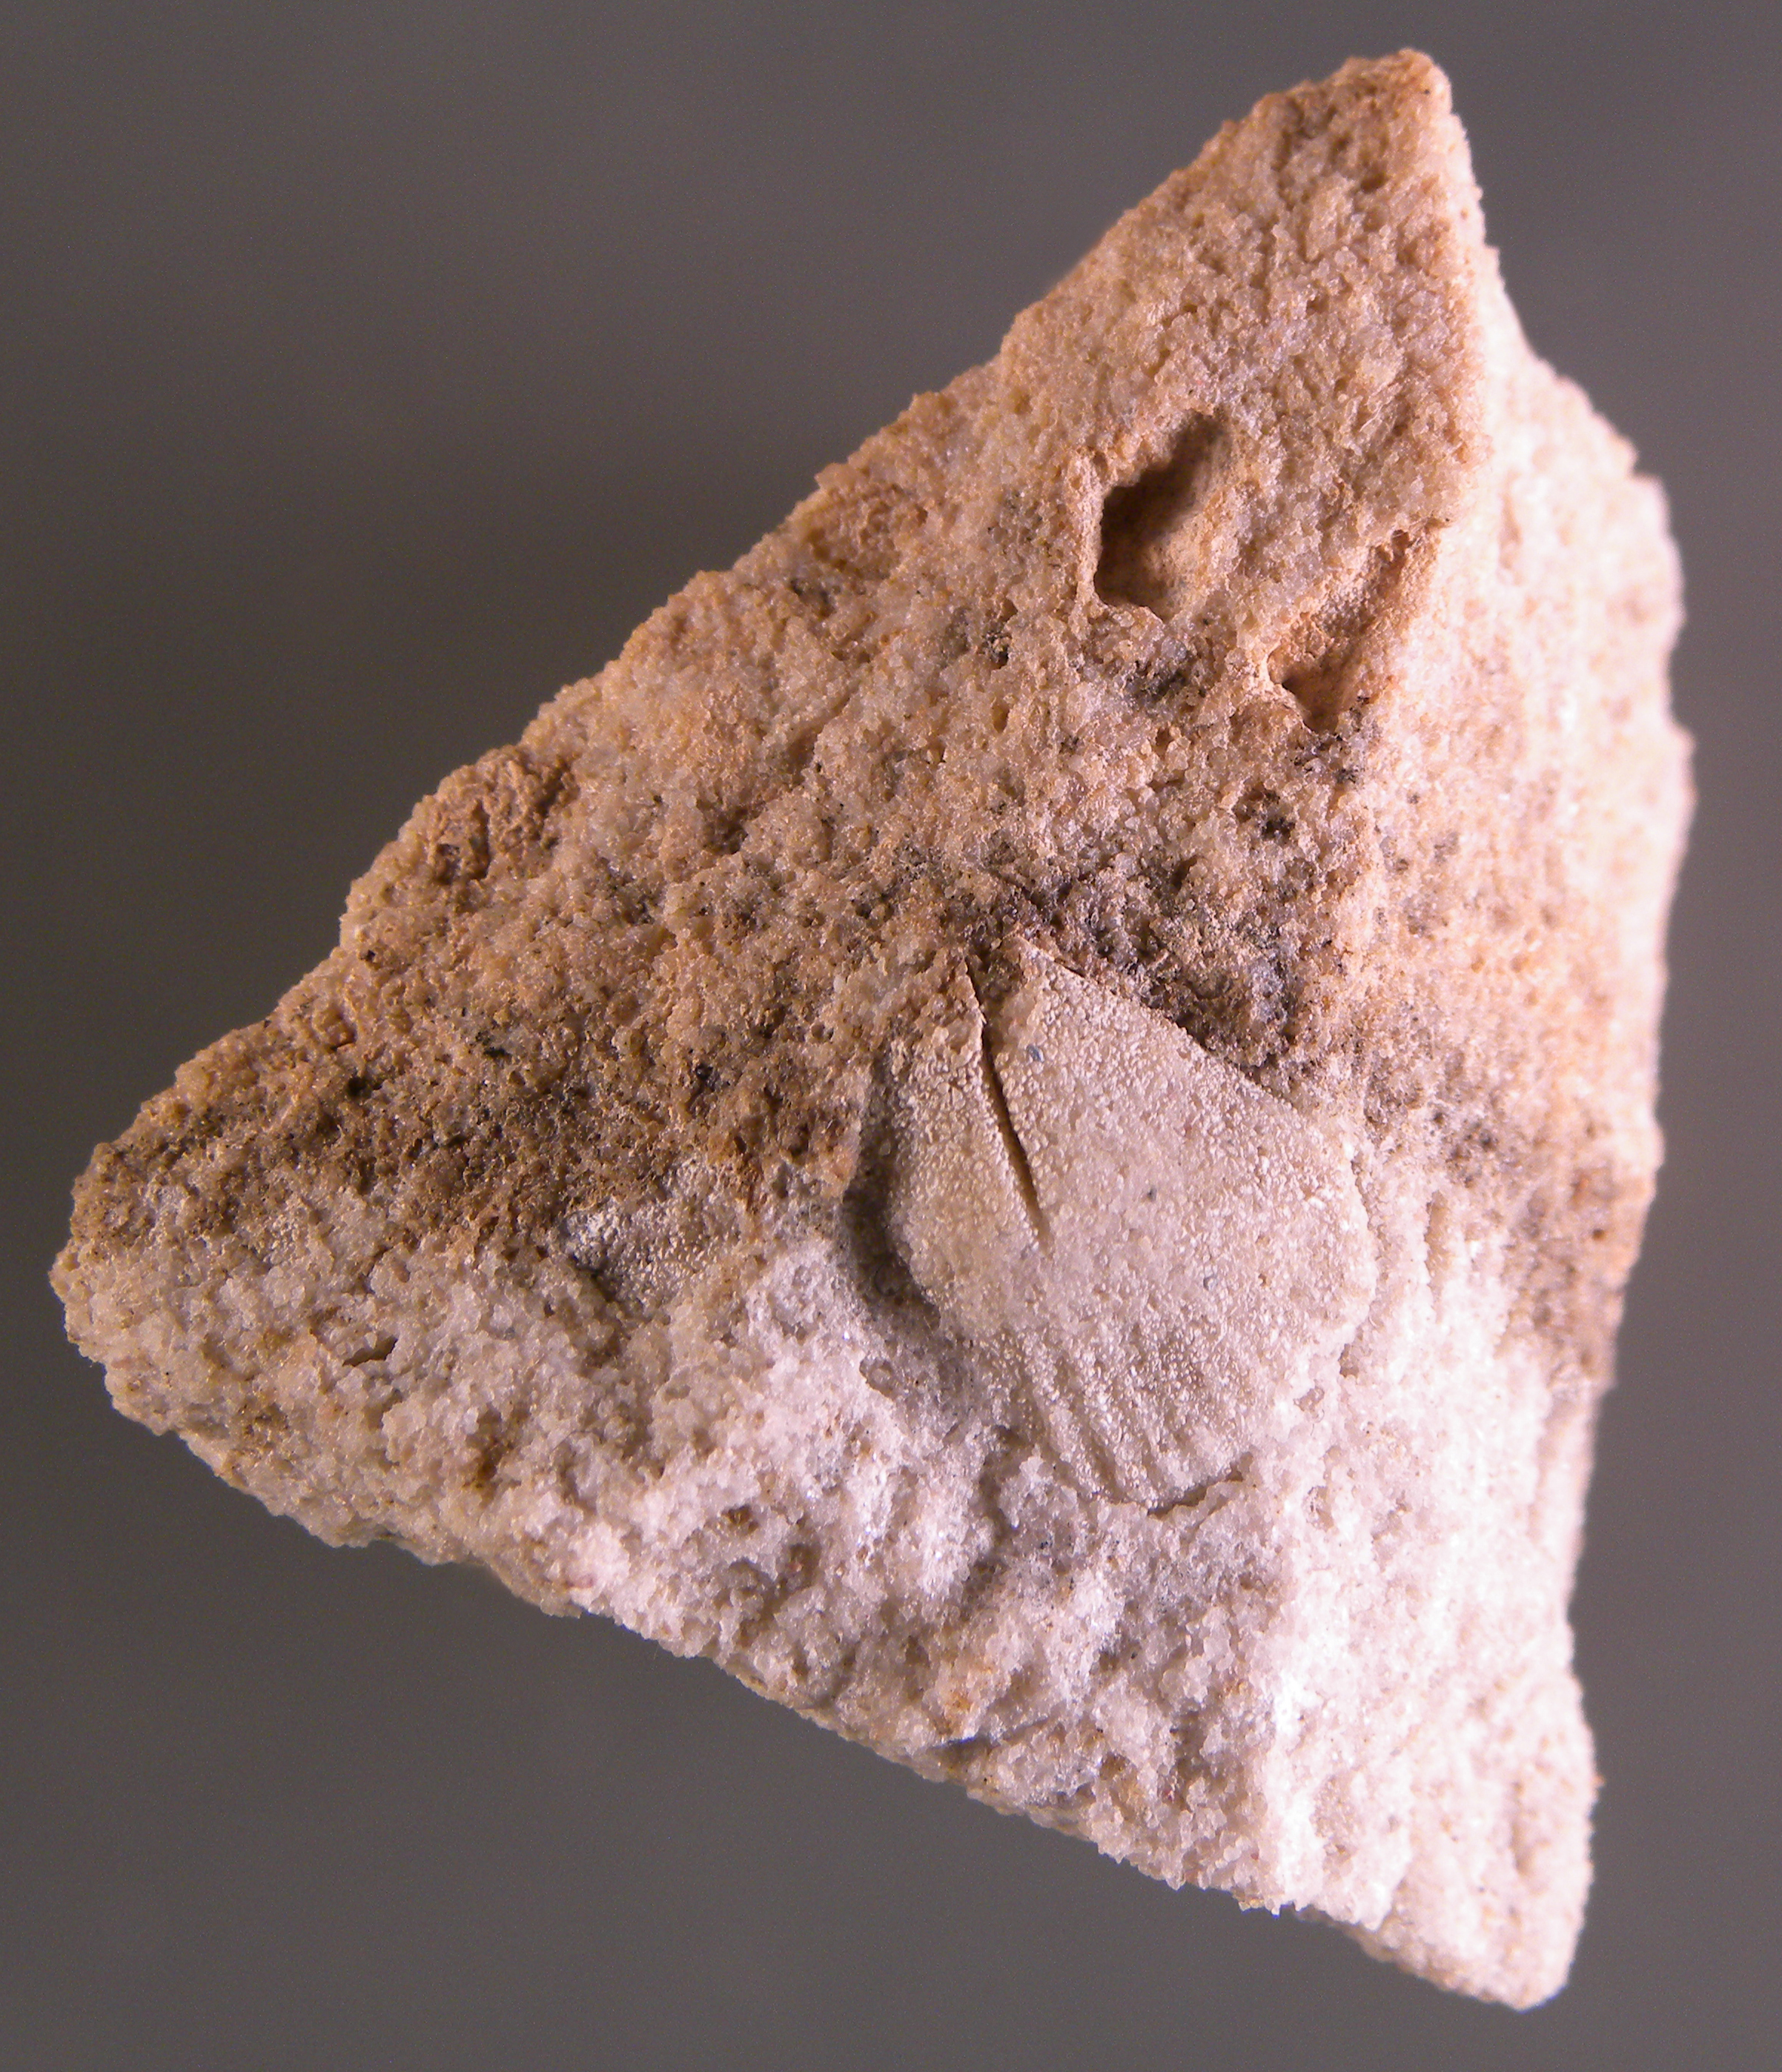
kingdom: Animalia
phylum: Brachiopoda
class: Rhynchonellata
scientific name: Rhynchonellata
